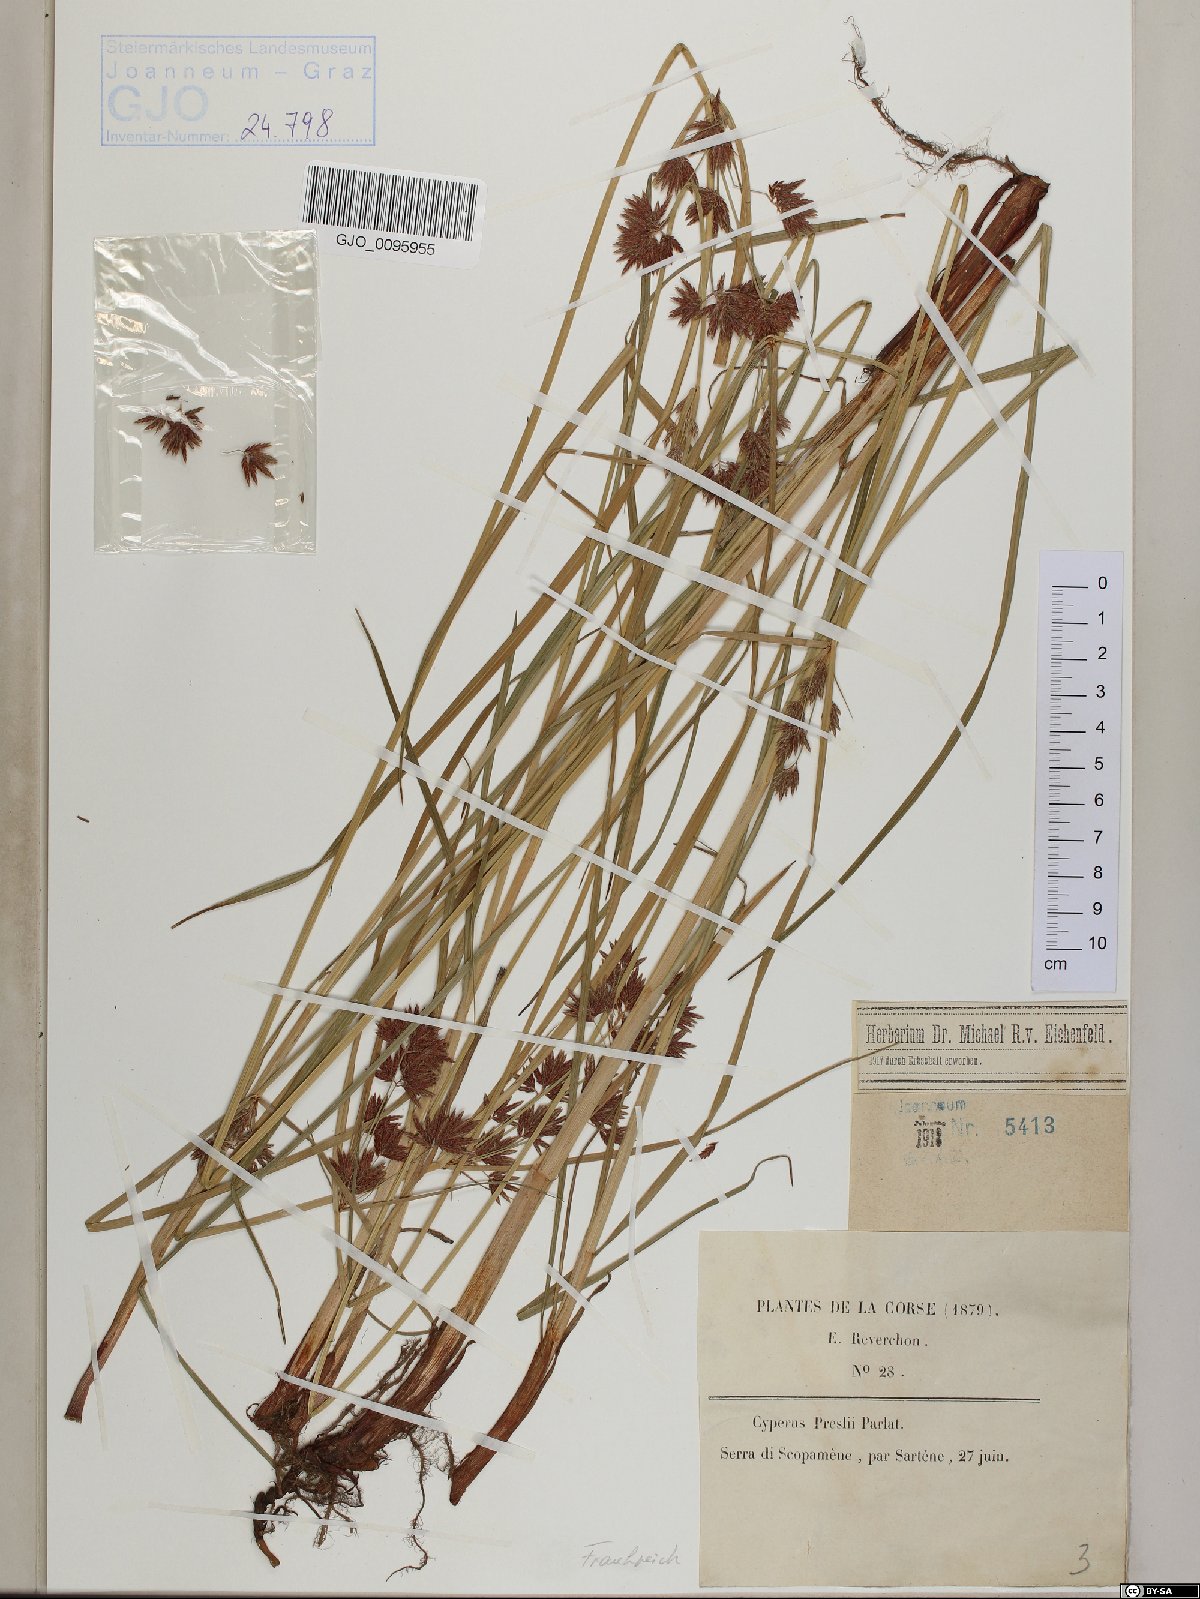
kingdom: Plantae
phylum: Tracheophyta
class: Liliopsida
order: Poales
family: Cyperaceae
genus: Cyperus
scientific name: Cyperus longus
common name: Galingale
